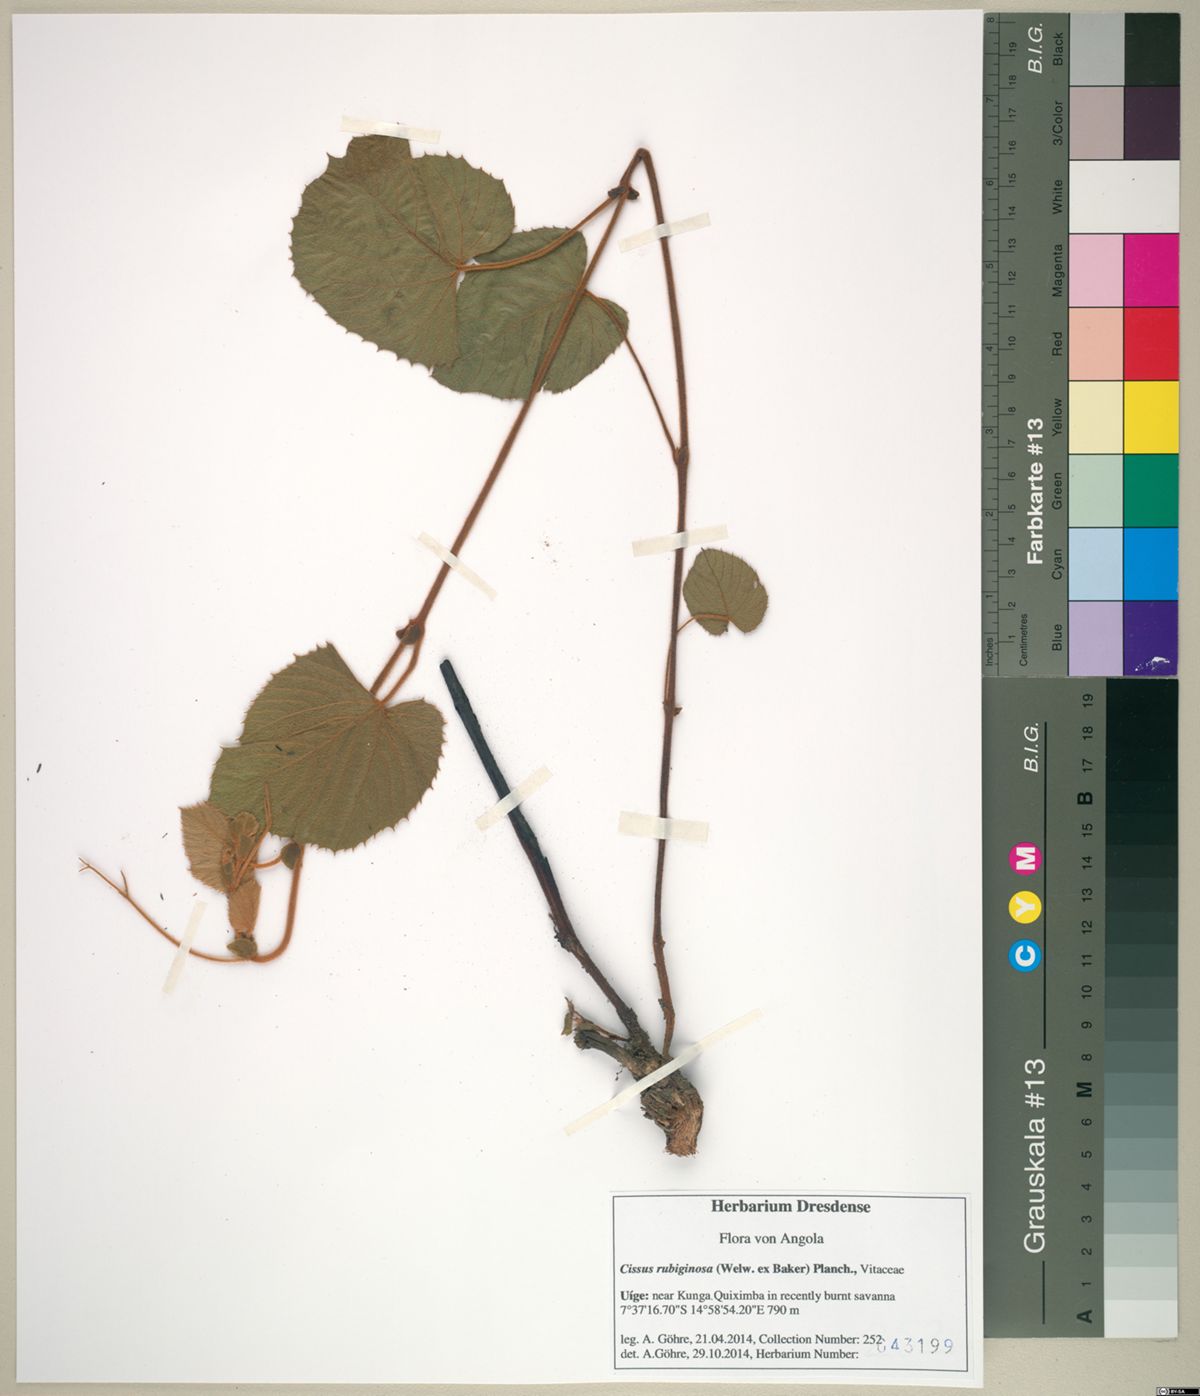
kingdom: Plantae
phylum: Tracheophyta
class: Magnoliopsida
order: Vitales
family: Vitaceae
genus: Cissus
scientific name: Cissus rubiginosa
